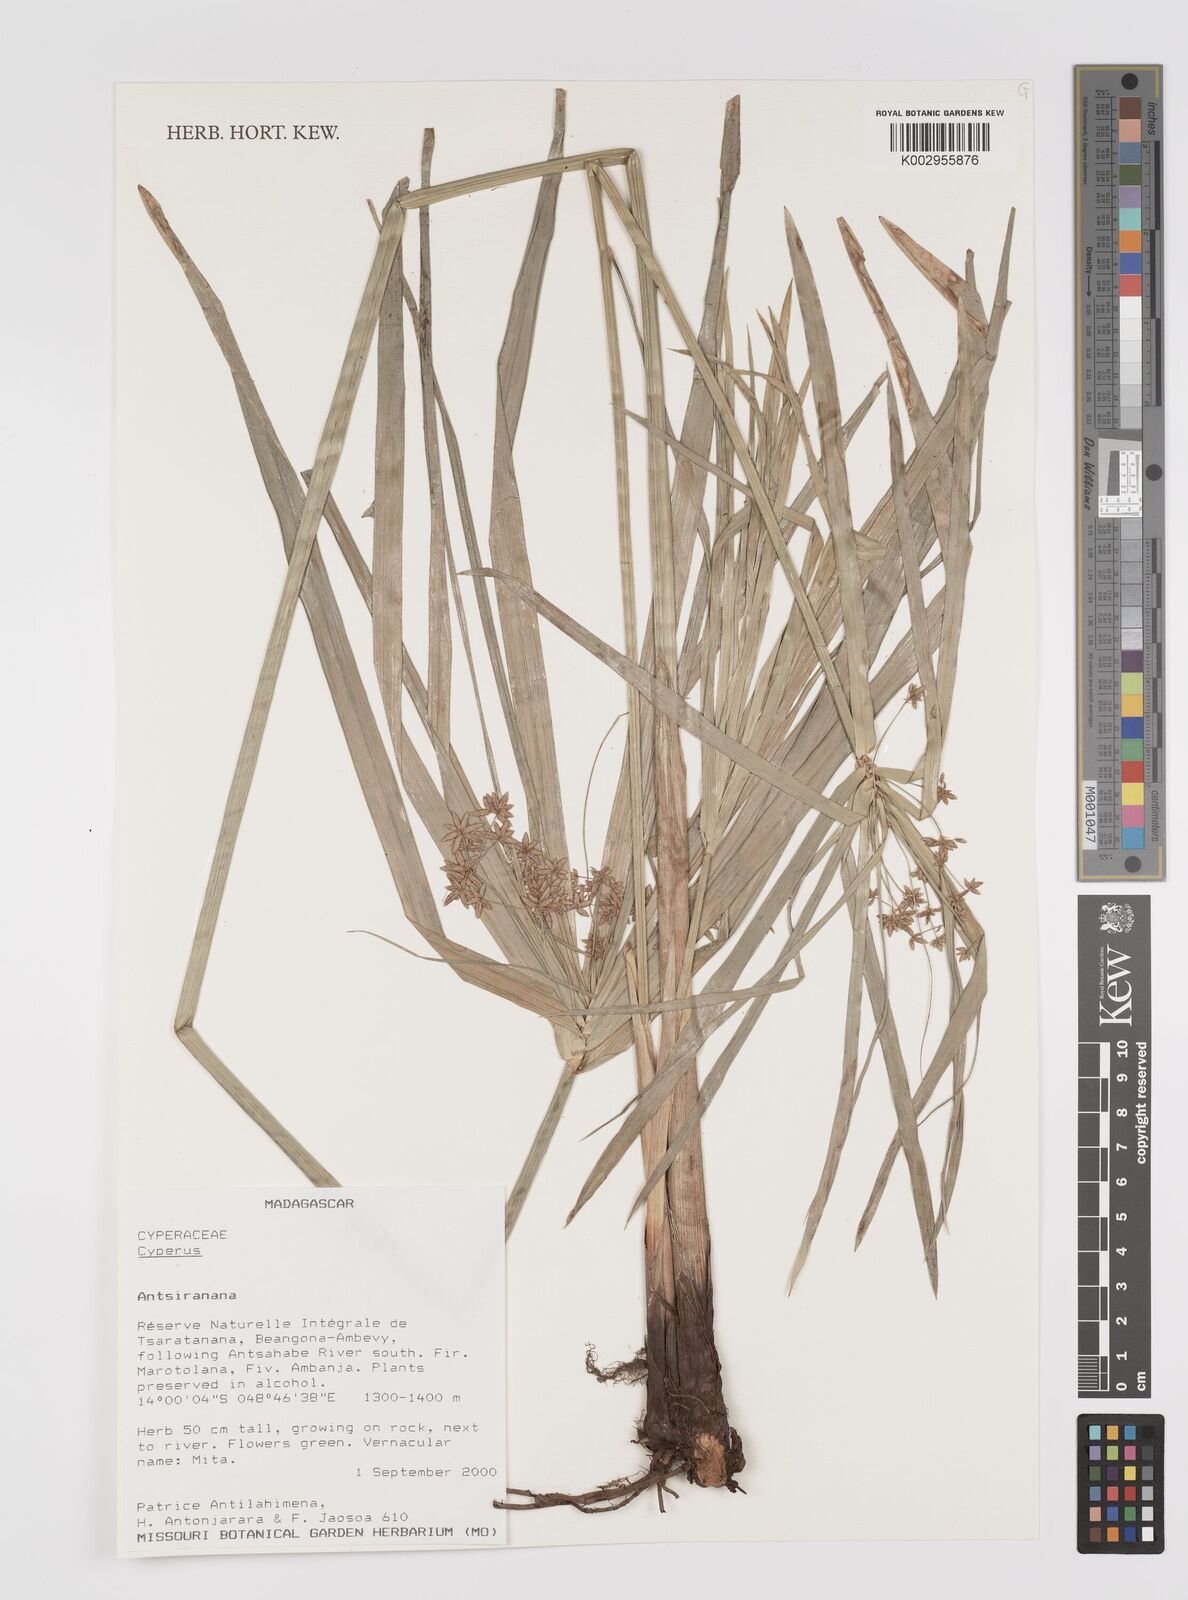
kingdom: Plantae
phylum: Tracheophyta
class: Liliopsida
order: Poales
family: Cyperaceae
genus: Cyperus
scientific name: Cyperus
